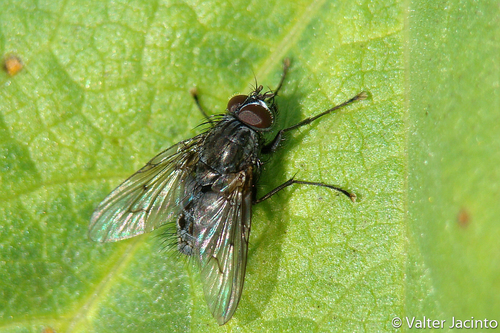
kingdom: Animalia
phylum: Arthropoda
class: Insecta
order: Diptera
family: Muscidae
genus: Helina
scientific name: Helina evecta
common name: Muscid fly
